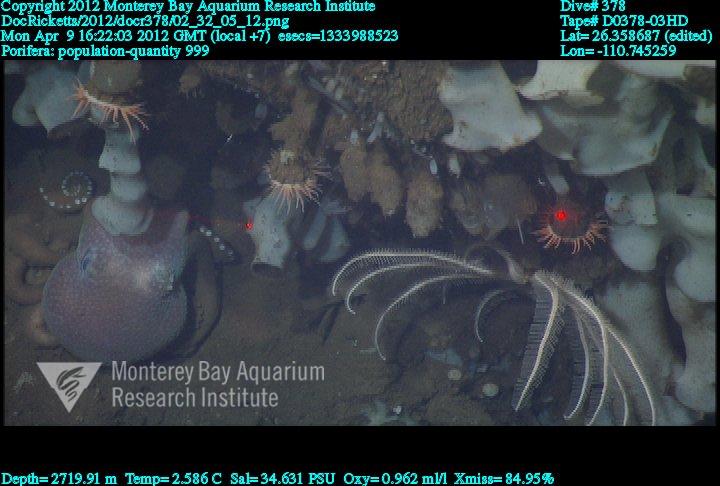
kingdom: Animalia
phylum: Porifera
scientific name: Porifera
